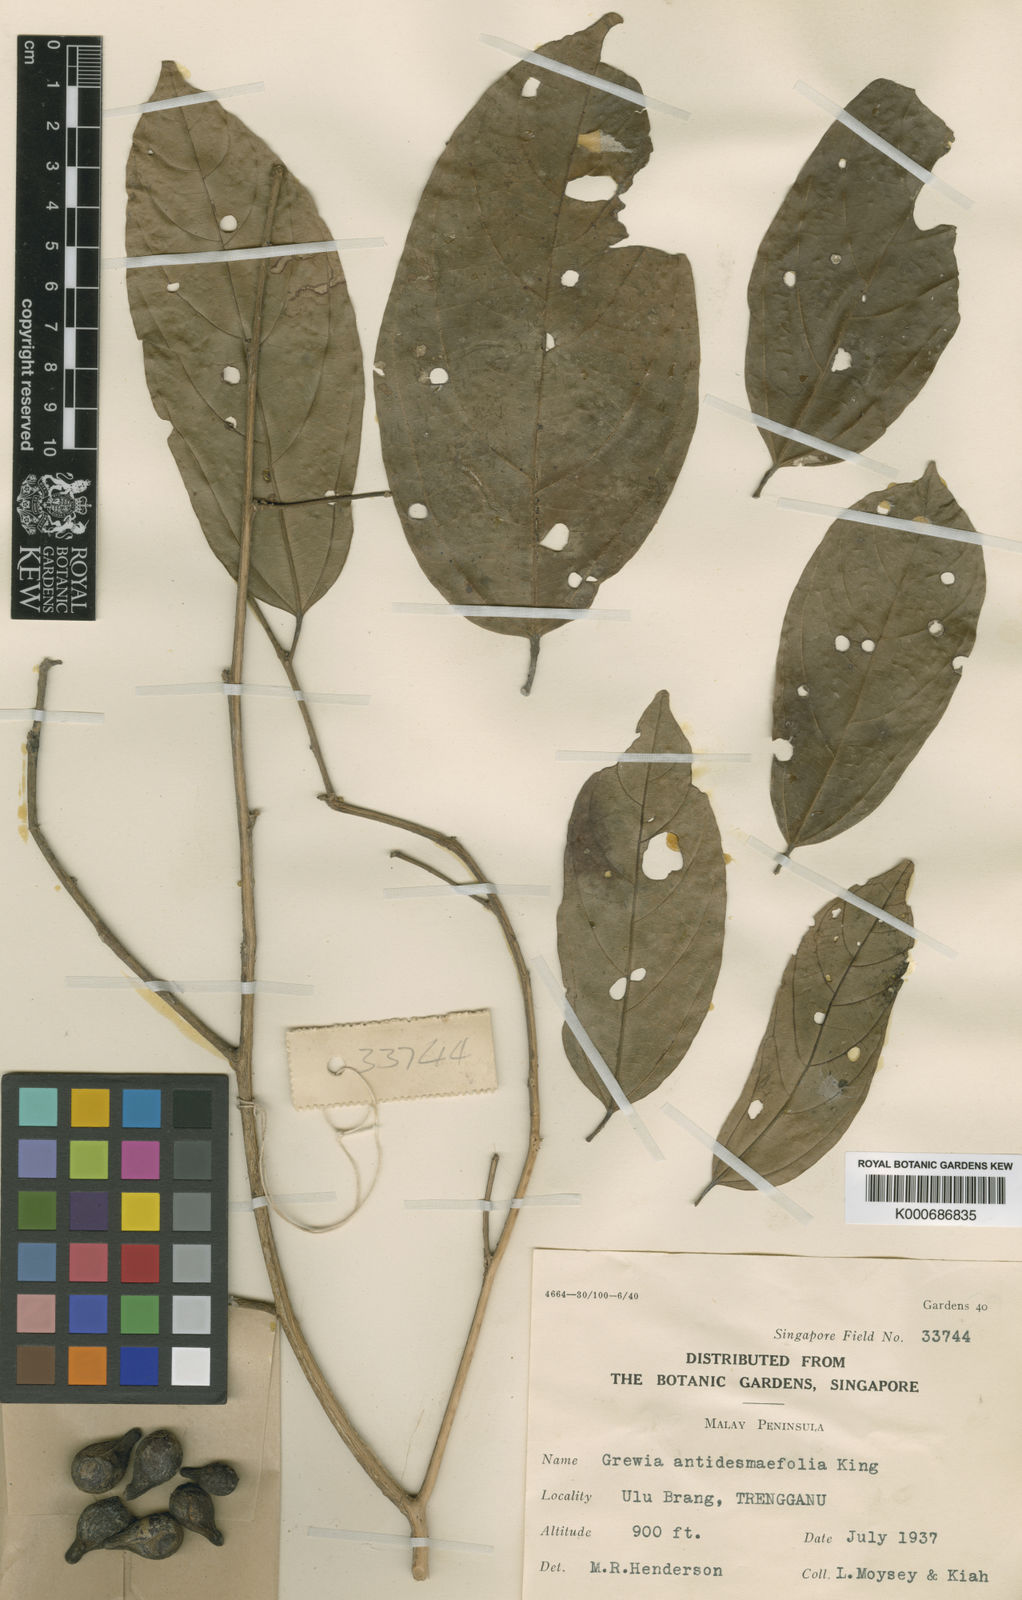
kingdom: Plantae
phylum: Tracheophyta
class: Magnoliopsida
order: Malvales
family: Malvaceae
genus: Microcos
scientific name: Microcos antidesmifolia
